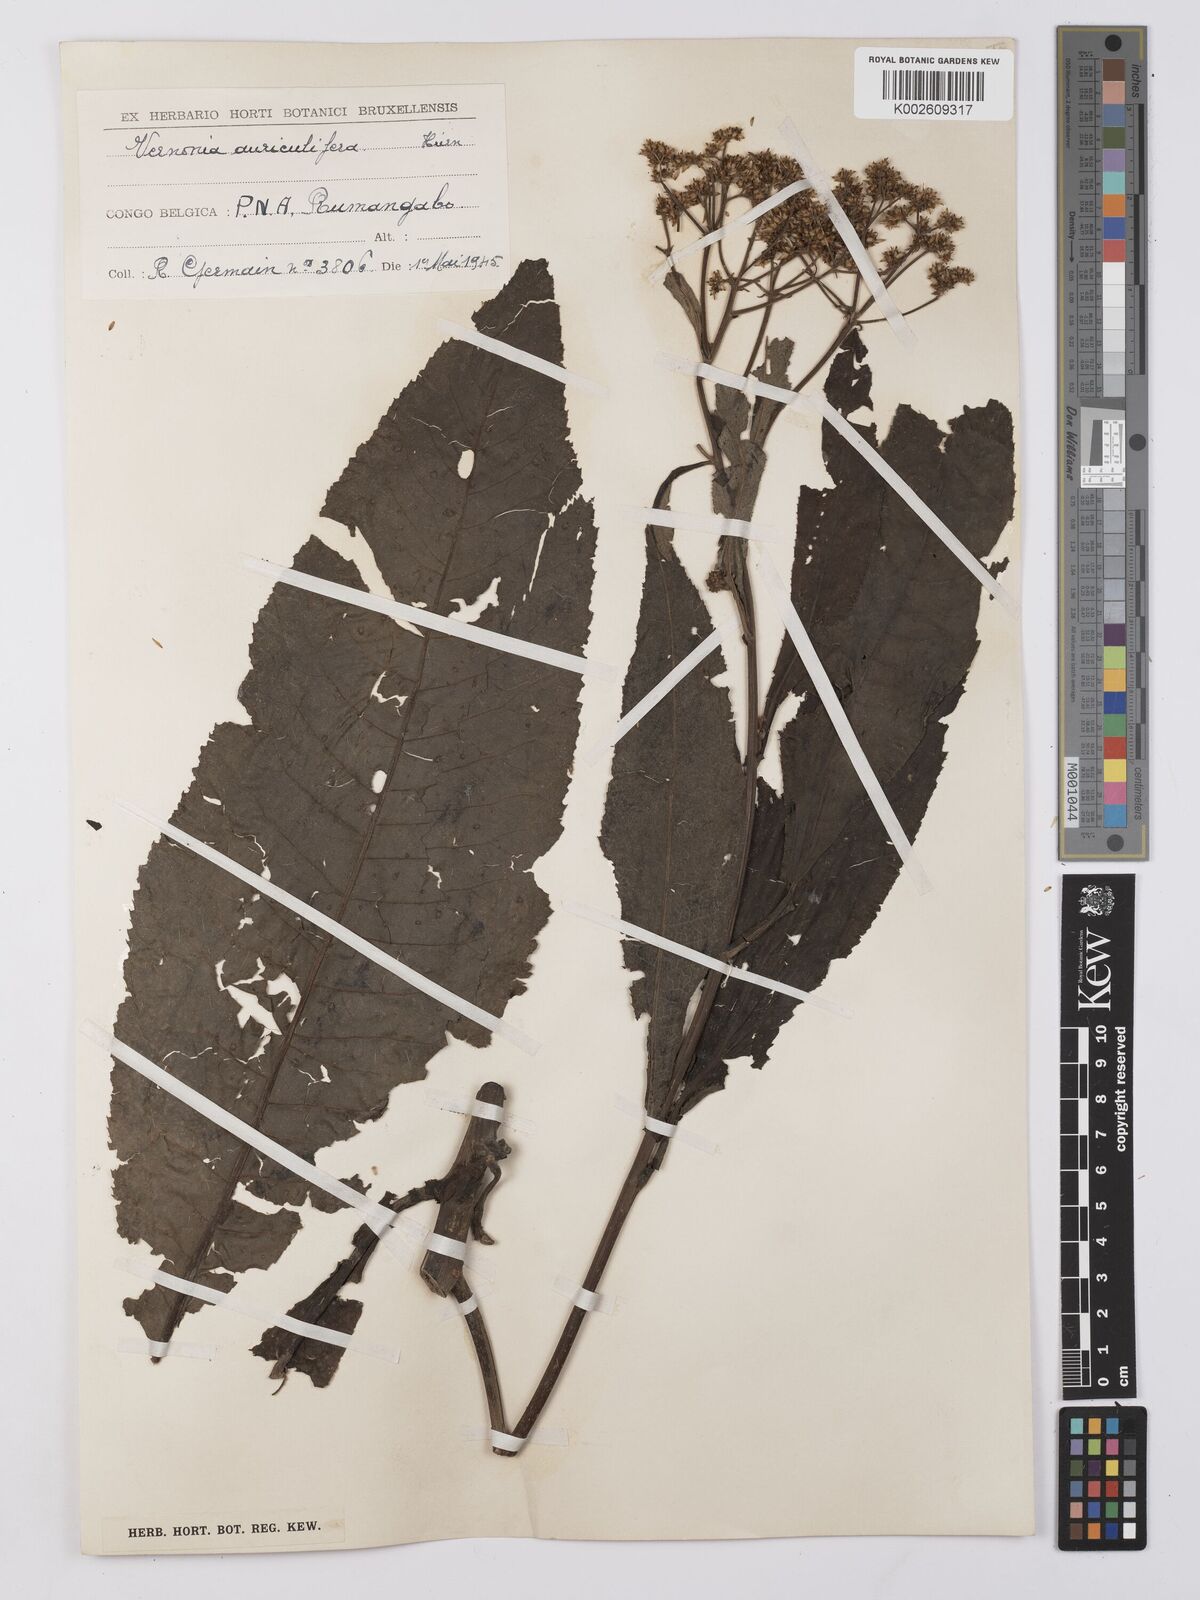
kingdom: Plantae
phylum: Tracheophyta
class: Magnoliopsida
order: Asterales
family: Asteraceae
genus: Gymnanthemum
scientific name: Gymnanthemum auriculiferum
